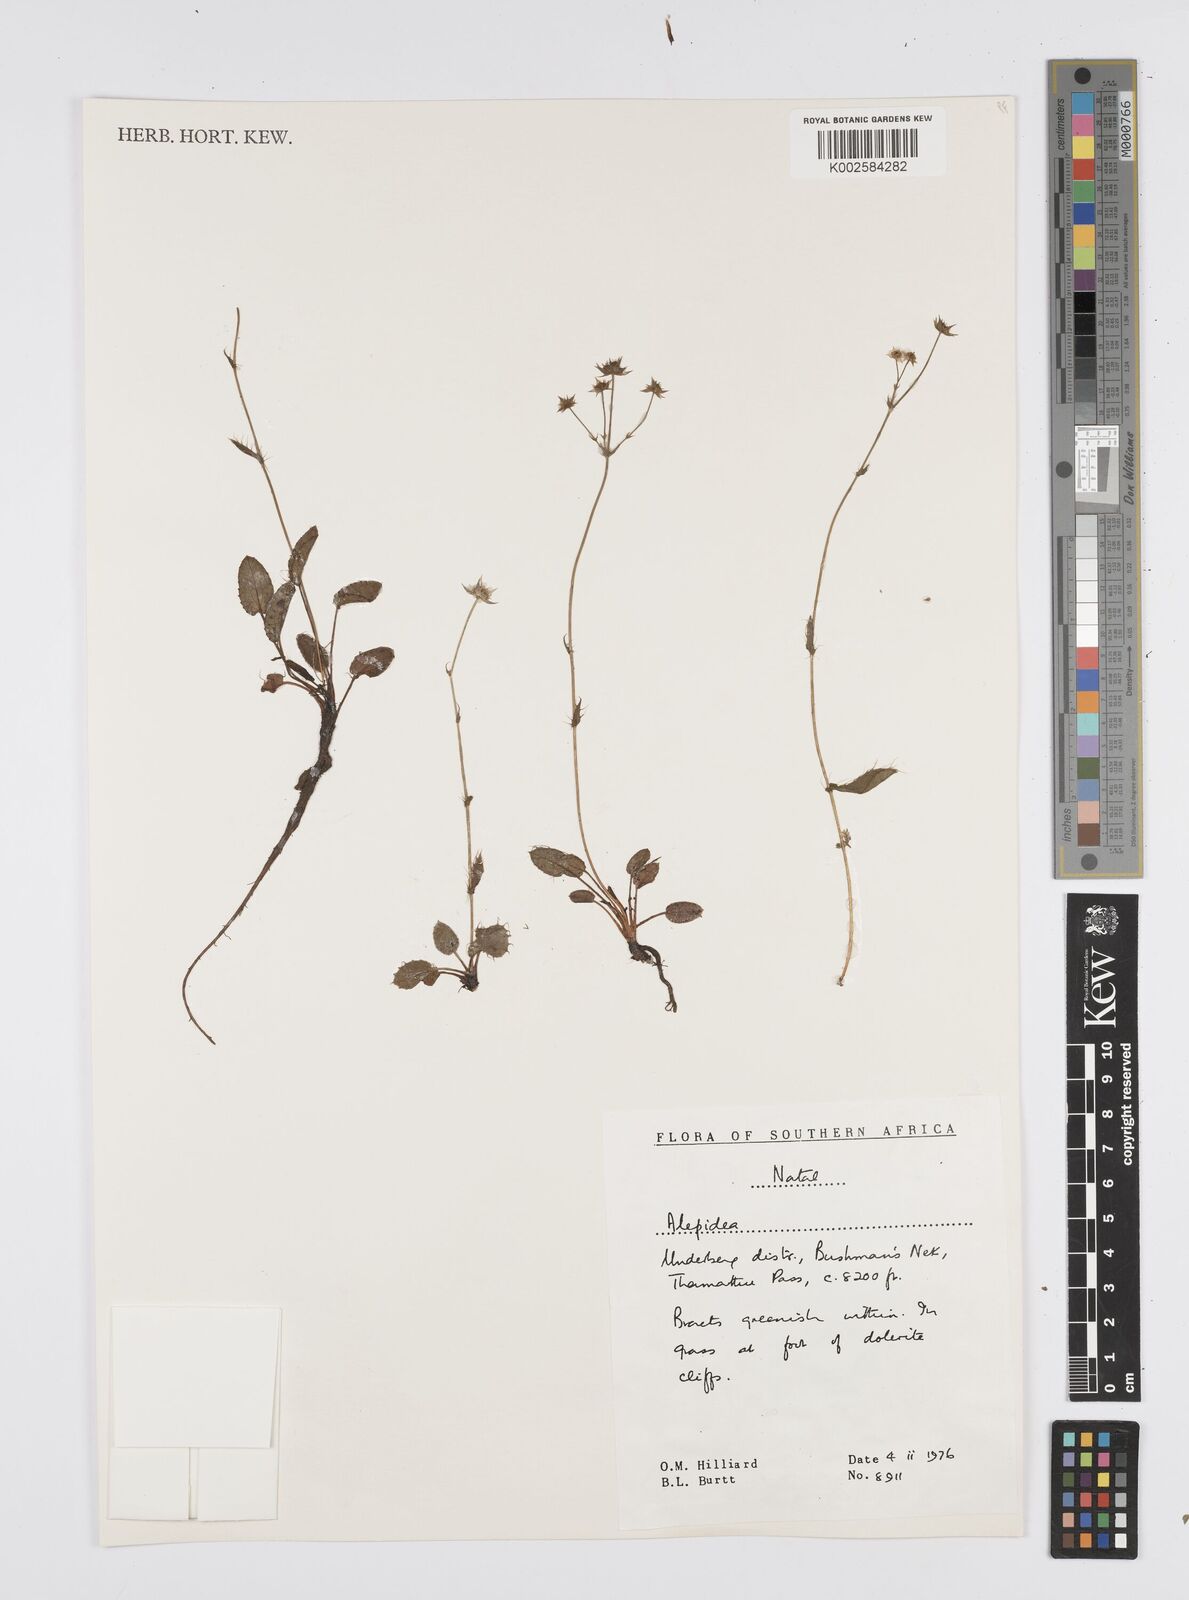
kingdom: Plantae
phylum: Tracheophyta
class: Magnoliopsida
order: Apiales
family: Apiaceae
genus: Alepidea
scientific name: Alepidea
